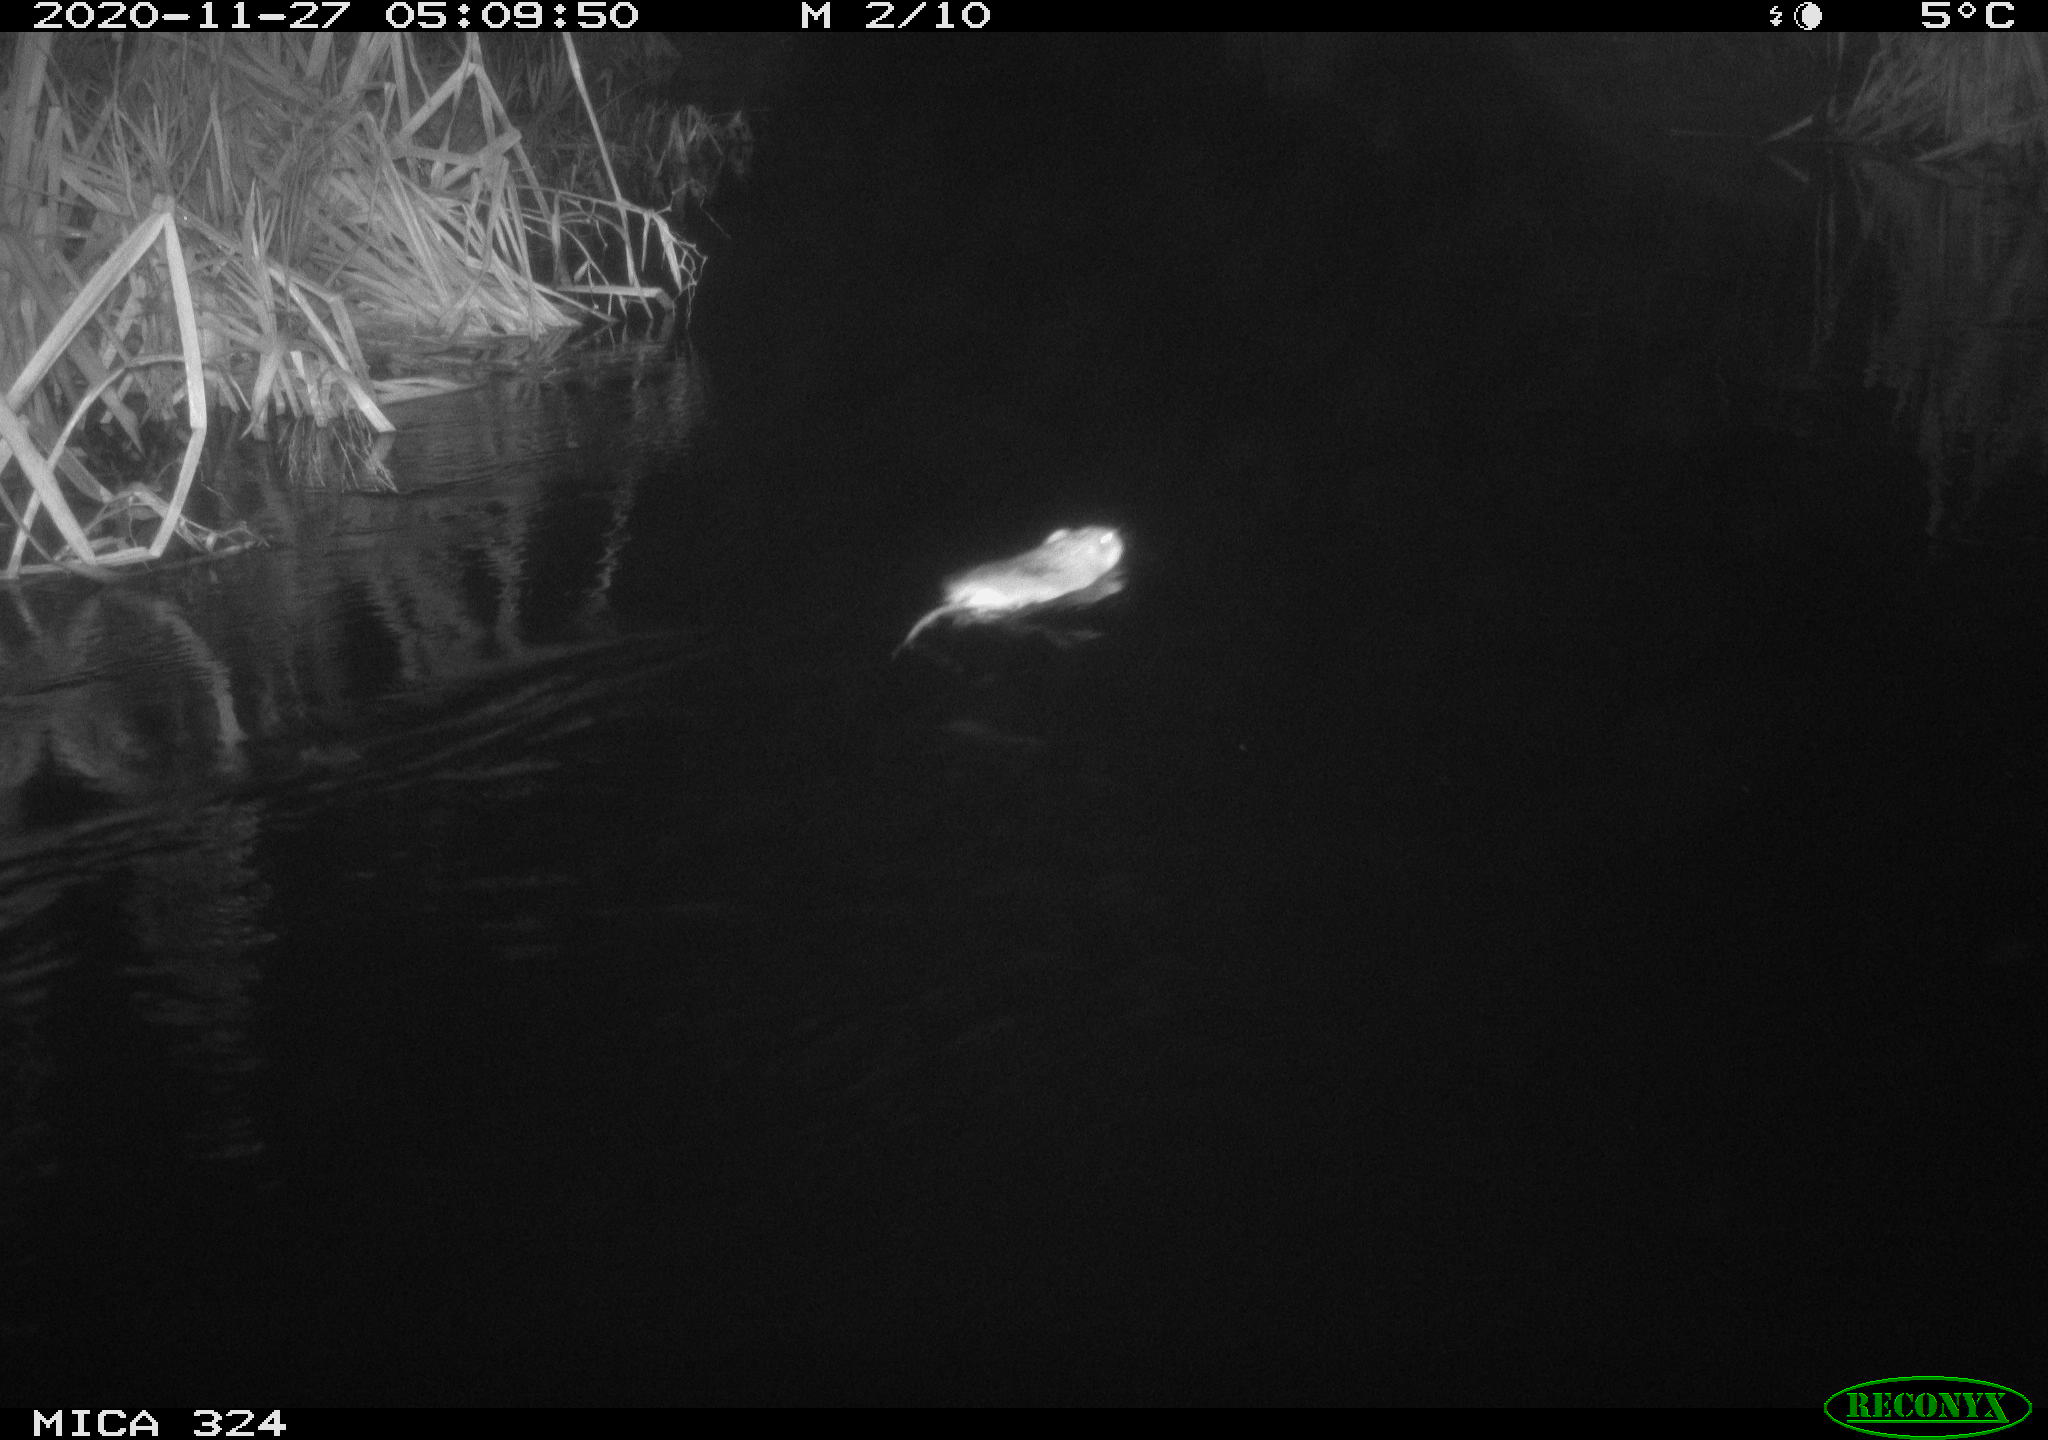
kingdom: Animalia
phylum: Chordata
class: Mammalia
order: Rodentia
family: Cricetidae
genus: Ondatra
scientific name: Ondatra zibethicus
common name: Muskrat
